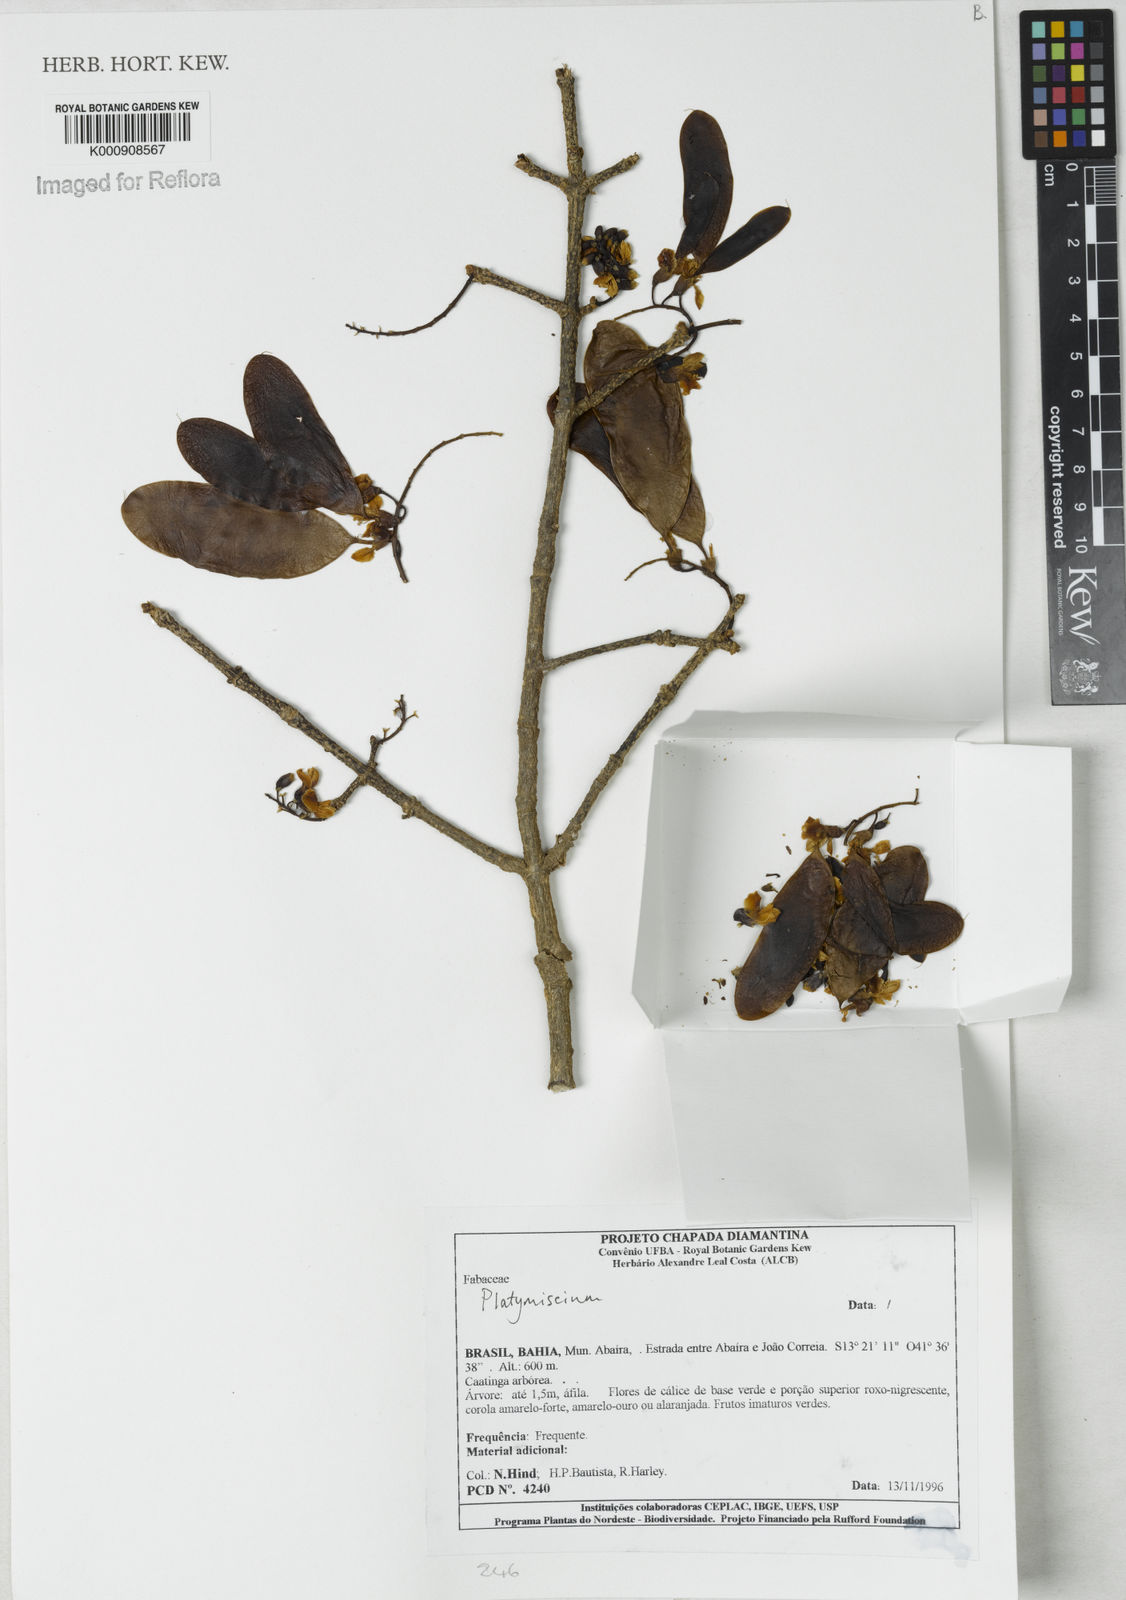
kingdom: Plantae
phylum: Tracheophyta
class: Magnoliopsida
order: Fabales
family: Fabaceae
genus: Platymiscium
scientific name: Platymiscium
